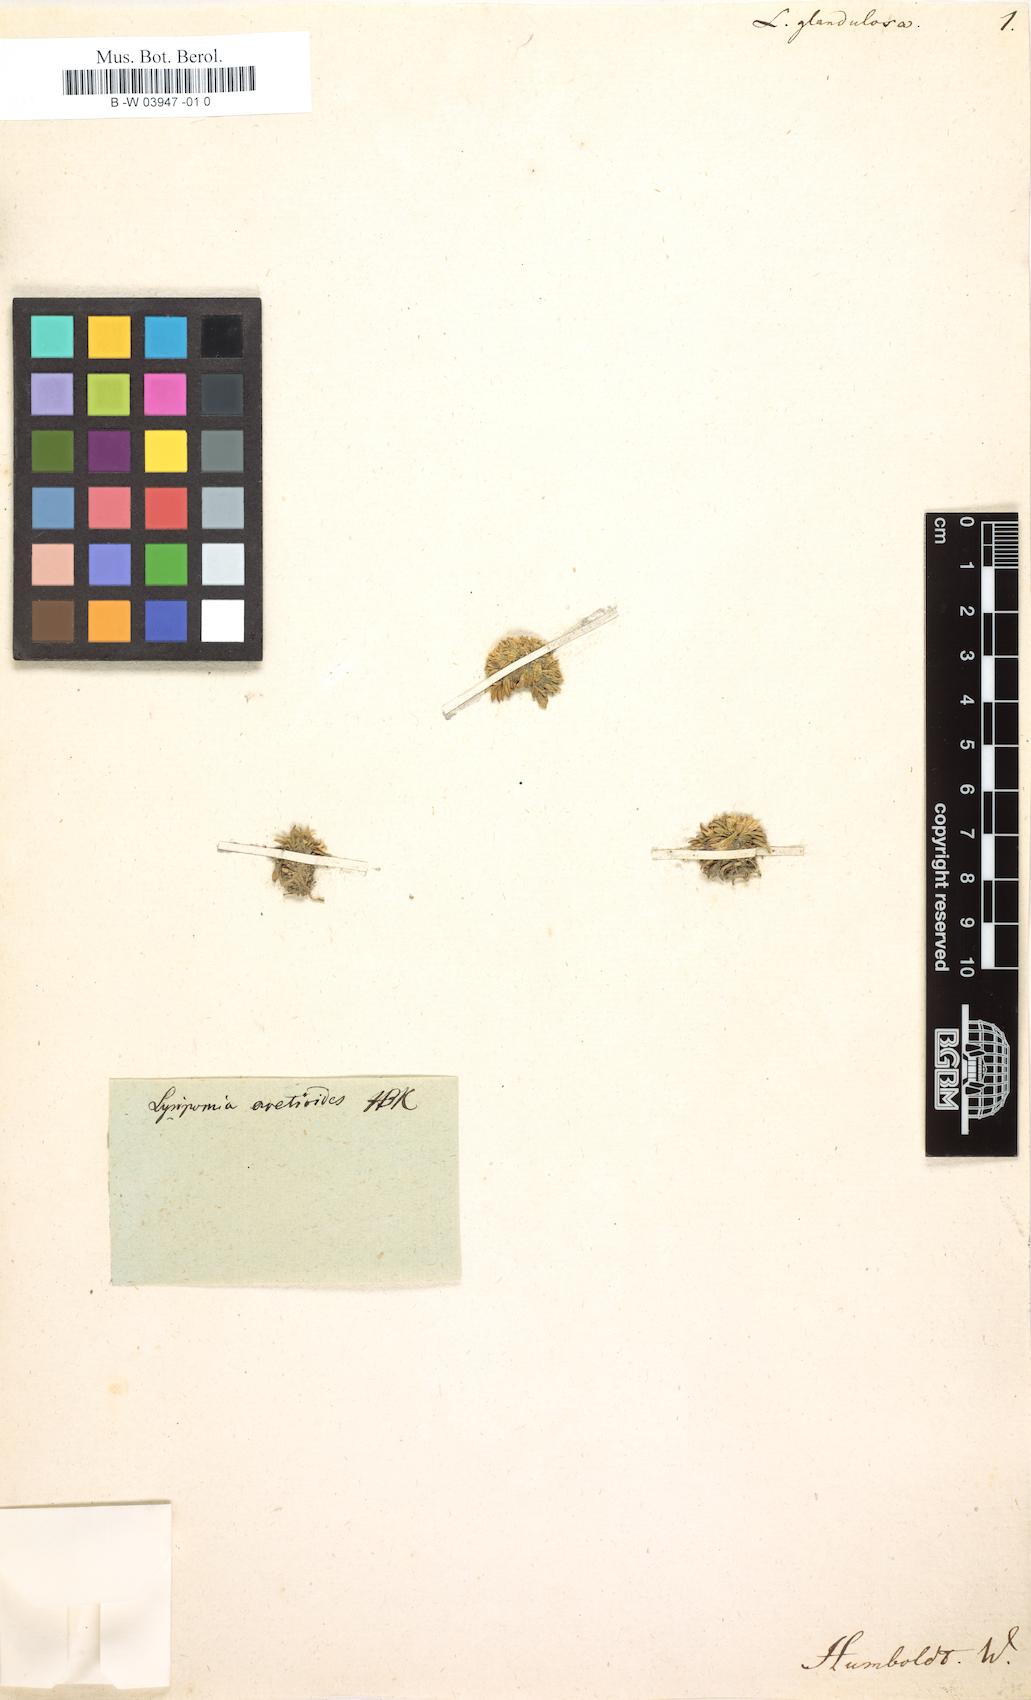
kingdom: Plantae
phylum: Tracheophyta
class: Magnoliopsida
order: Asterales
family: Campanulaceae
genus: Lysipomia
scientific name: Lysipomia aretioides
